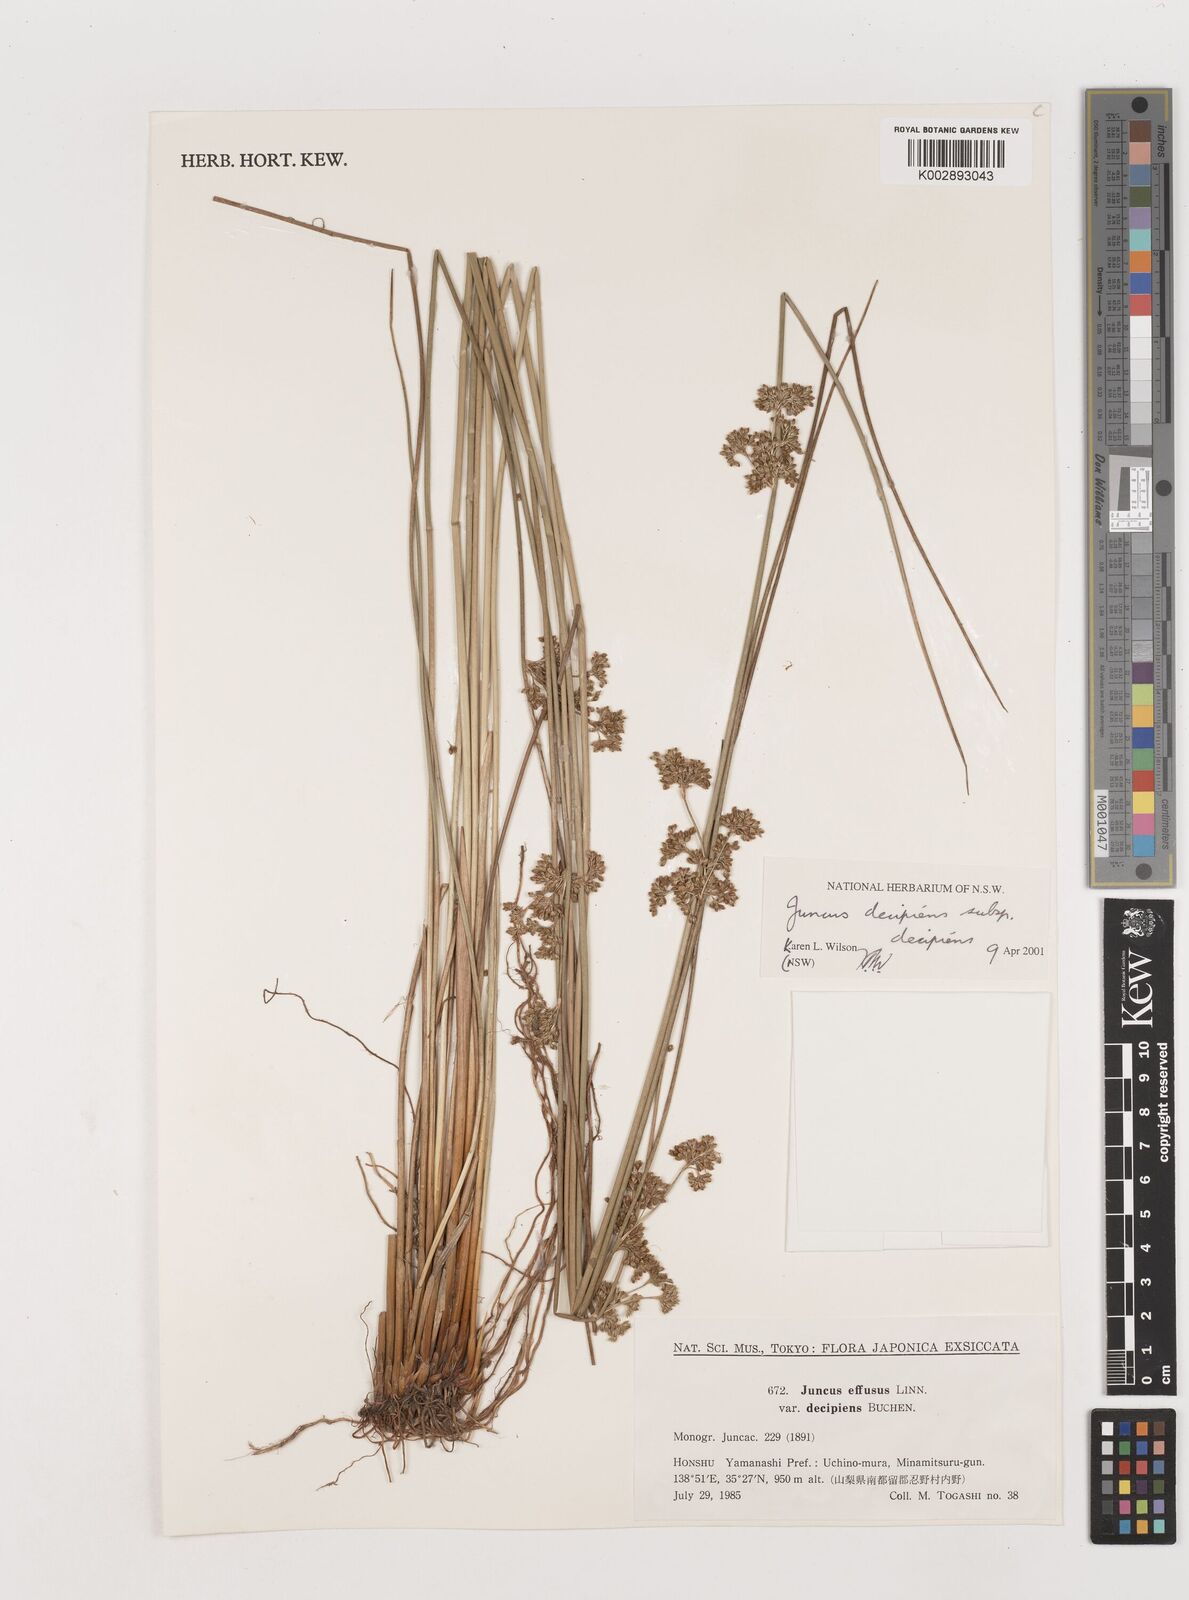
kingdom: Plantae
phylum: Tracheophyta
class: Liliopsida
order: Poales
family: Juncaceae
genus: Juncus
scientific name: Juncus decipiens
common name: Lamp rush
